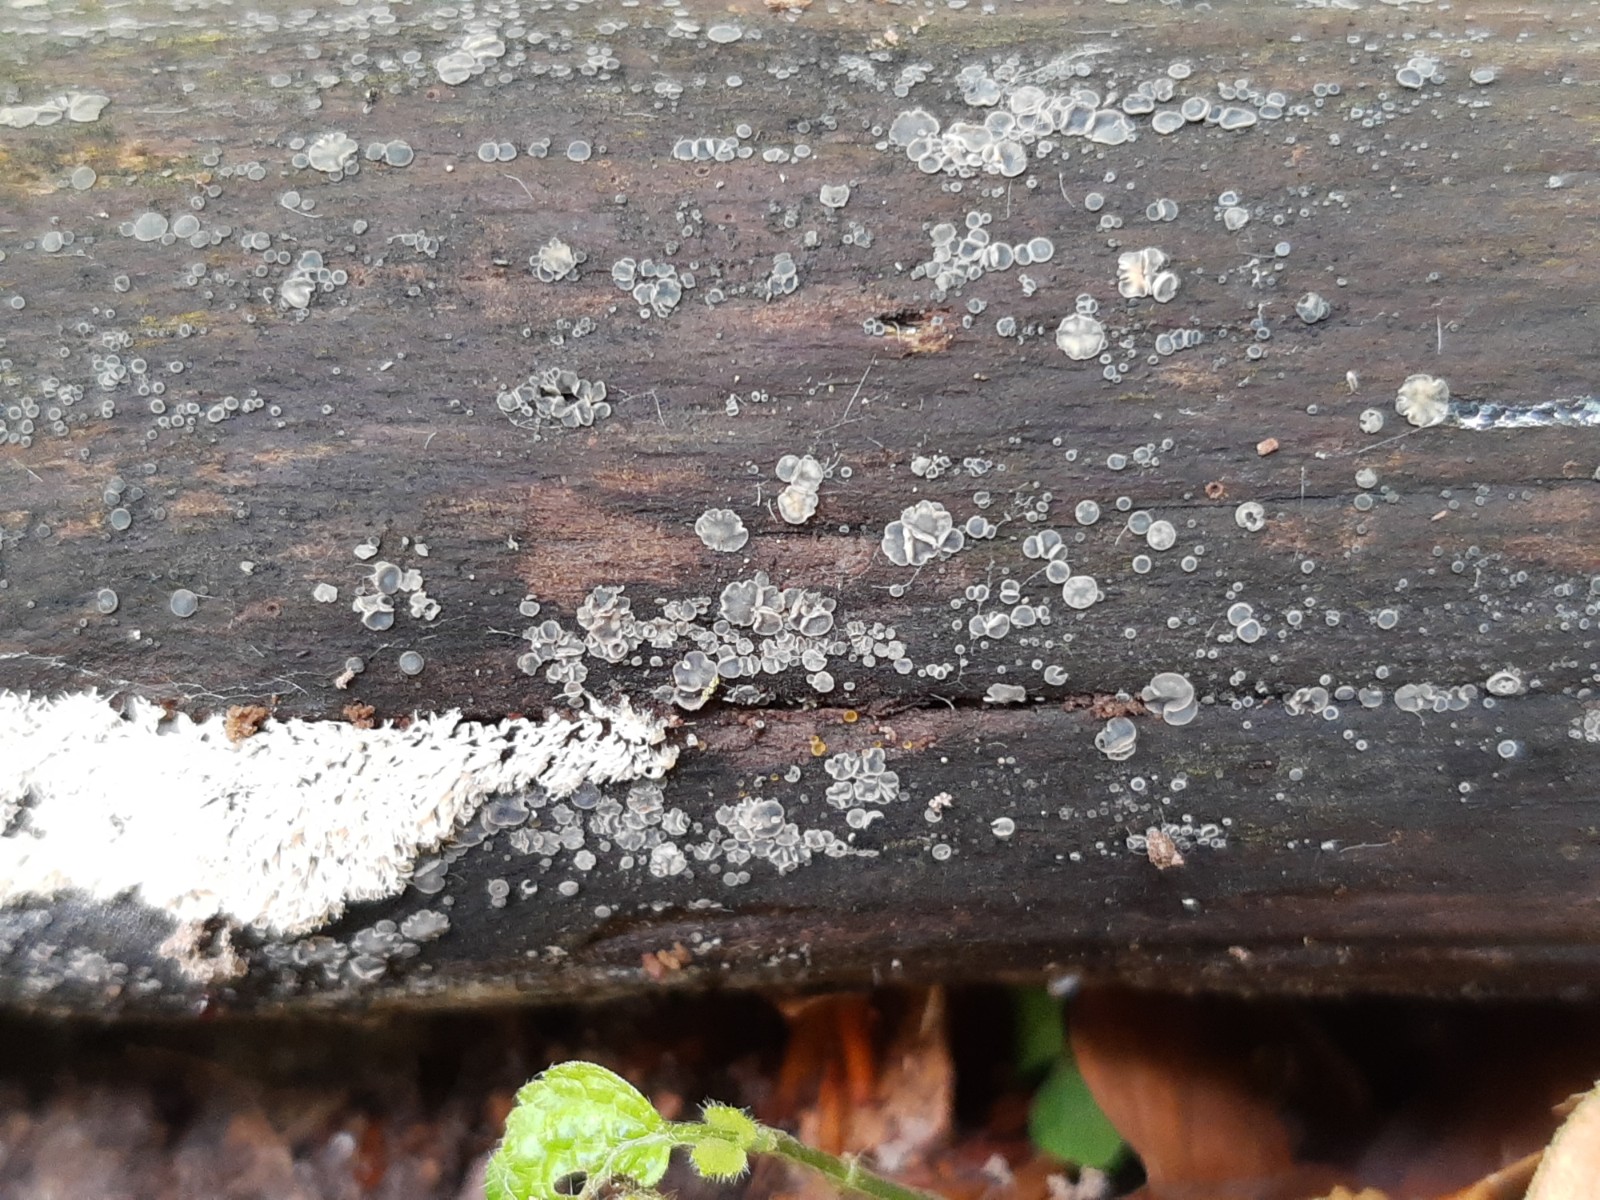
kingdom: Fungi
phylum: Ascomycota
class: Leotiomycetes
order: Helotiales
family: Mollisiaceae
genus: Mollisia
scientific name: Mollisia cinerea
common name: almindelig gråskive
